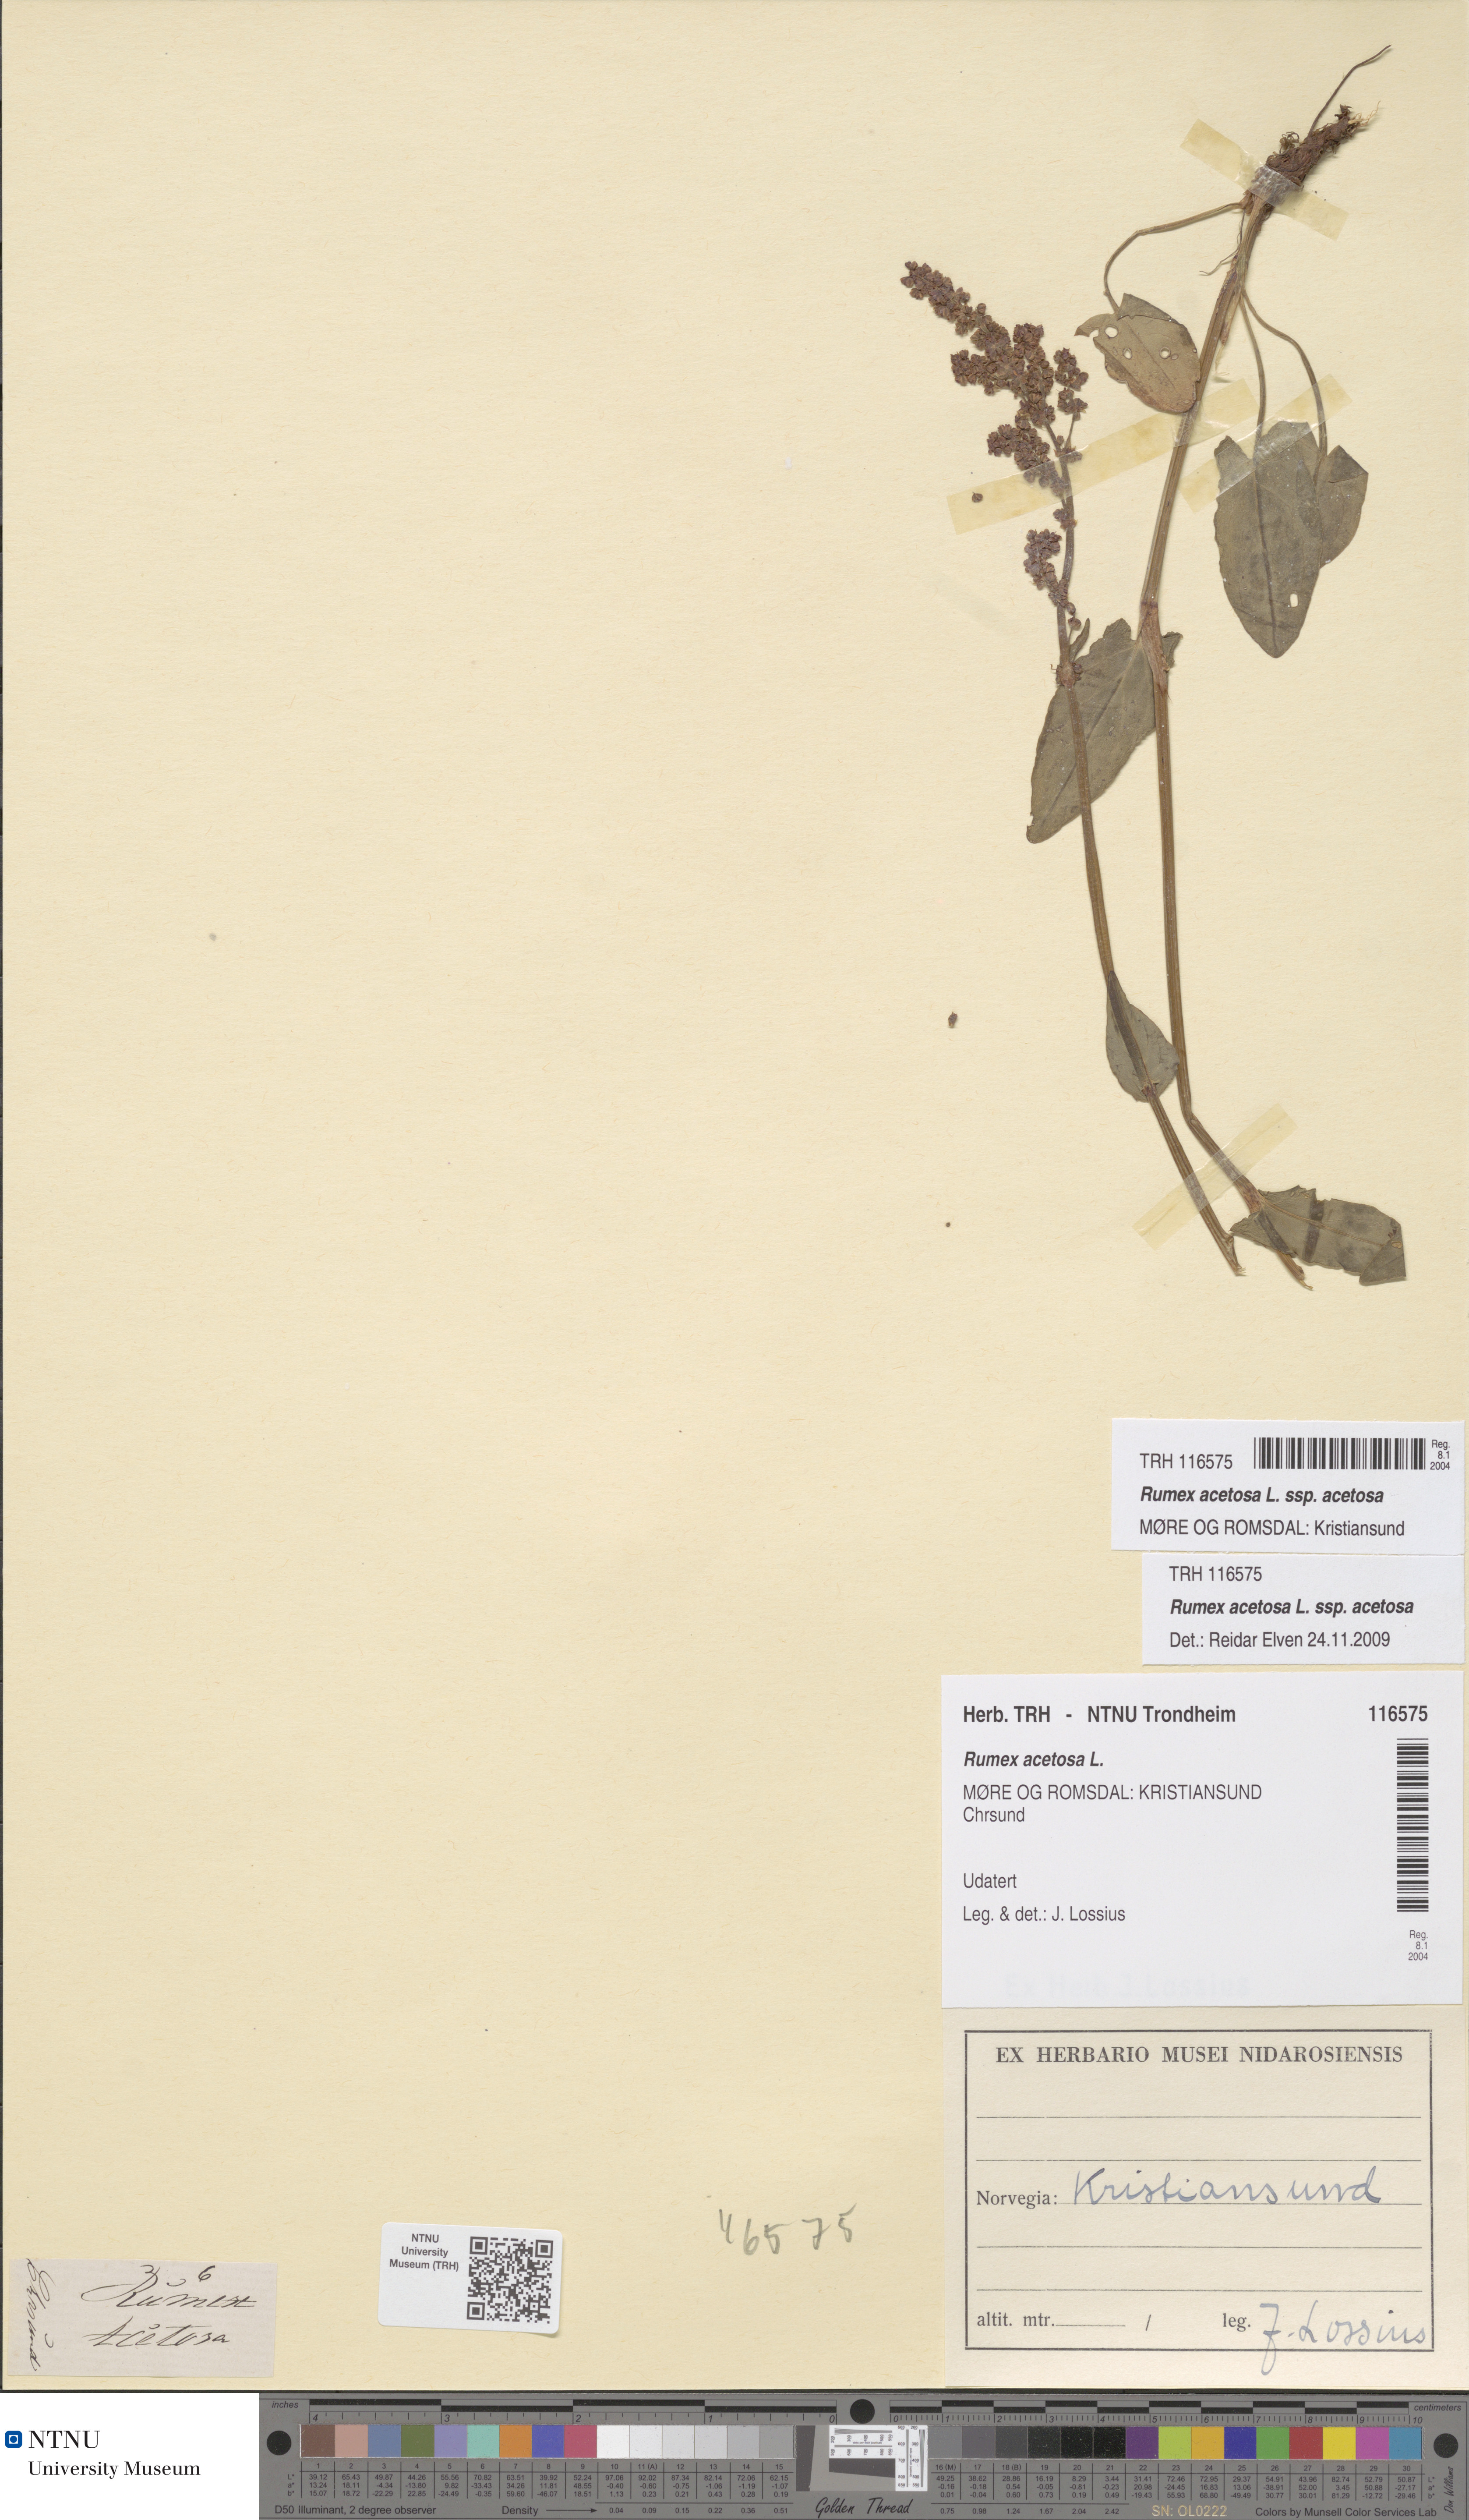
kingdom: Plantae
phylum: Tracheophyta
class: Magnoliopsida
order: Caryophyllales
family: Polygonaceae
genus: Rumex
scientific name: Rumex acetosa
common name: Garden sorrel
